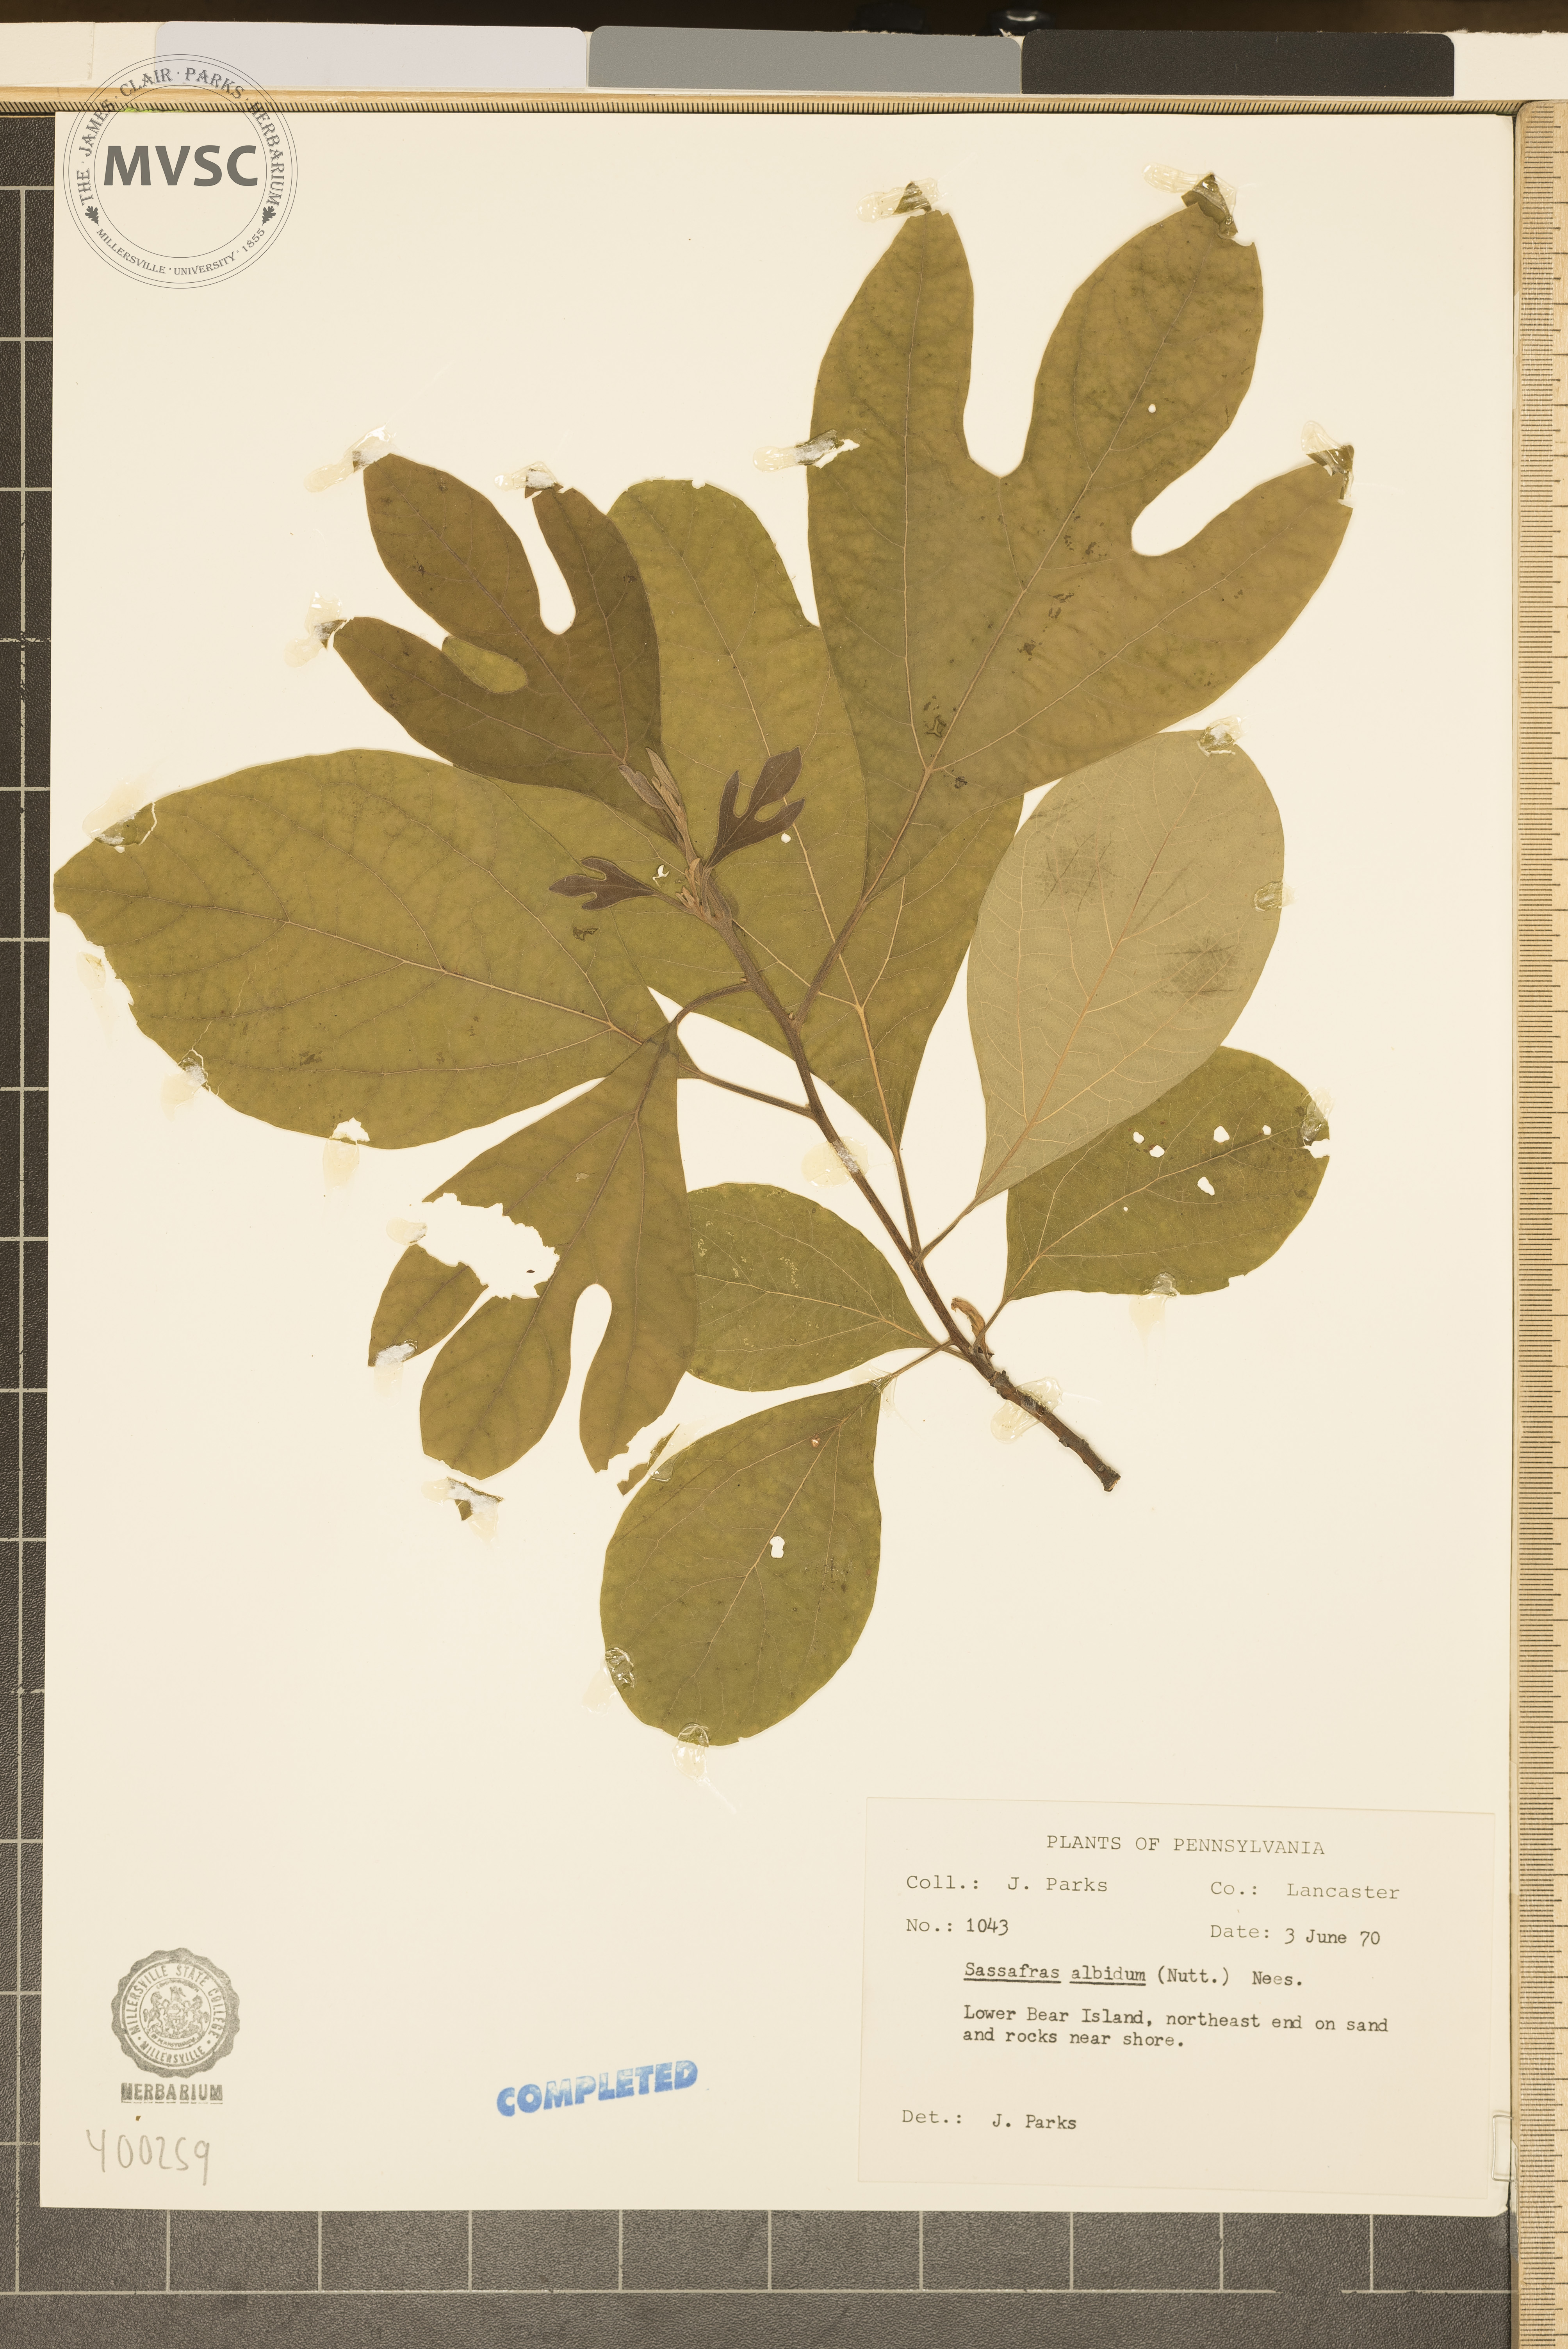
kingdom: Plantae
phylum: Tracheophyta
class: Magnoliopsida
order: Laurales
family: Lauraceae
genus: Sassafras
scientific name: Sassafras albidum
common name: sassafras
